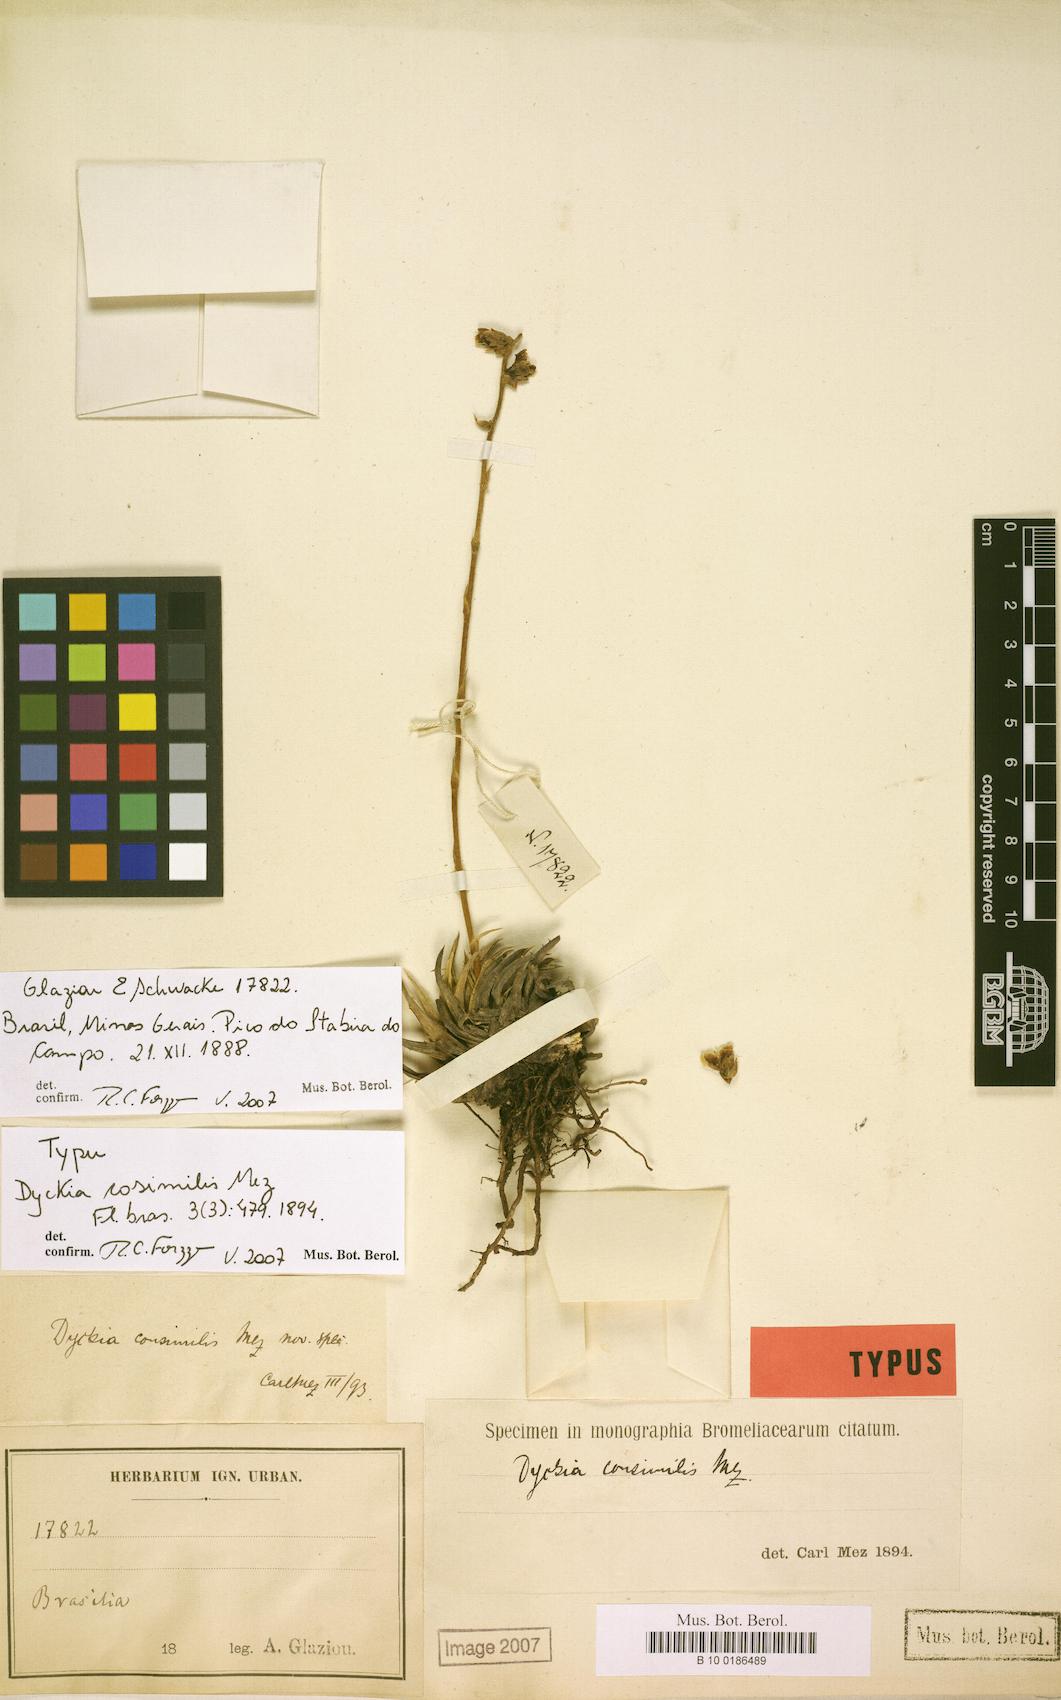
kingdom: Plantae
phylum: Tracheophyta
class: Liliopsida
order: Poales
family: Bromeliaceae
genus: Dyckia
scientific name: Dyckia consimilis
